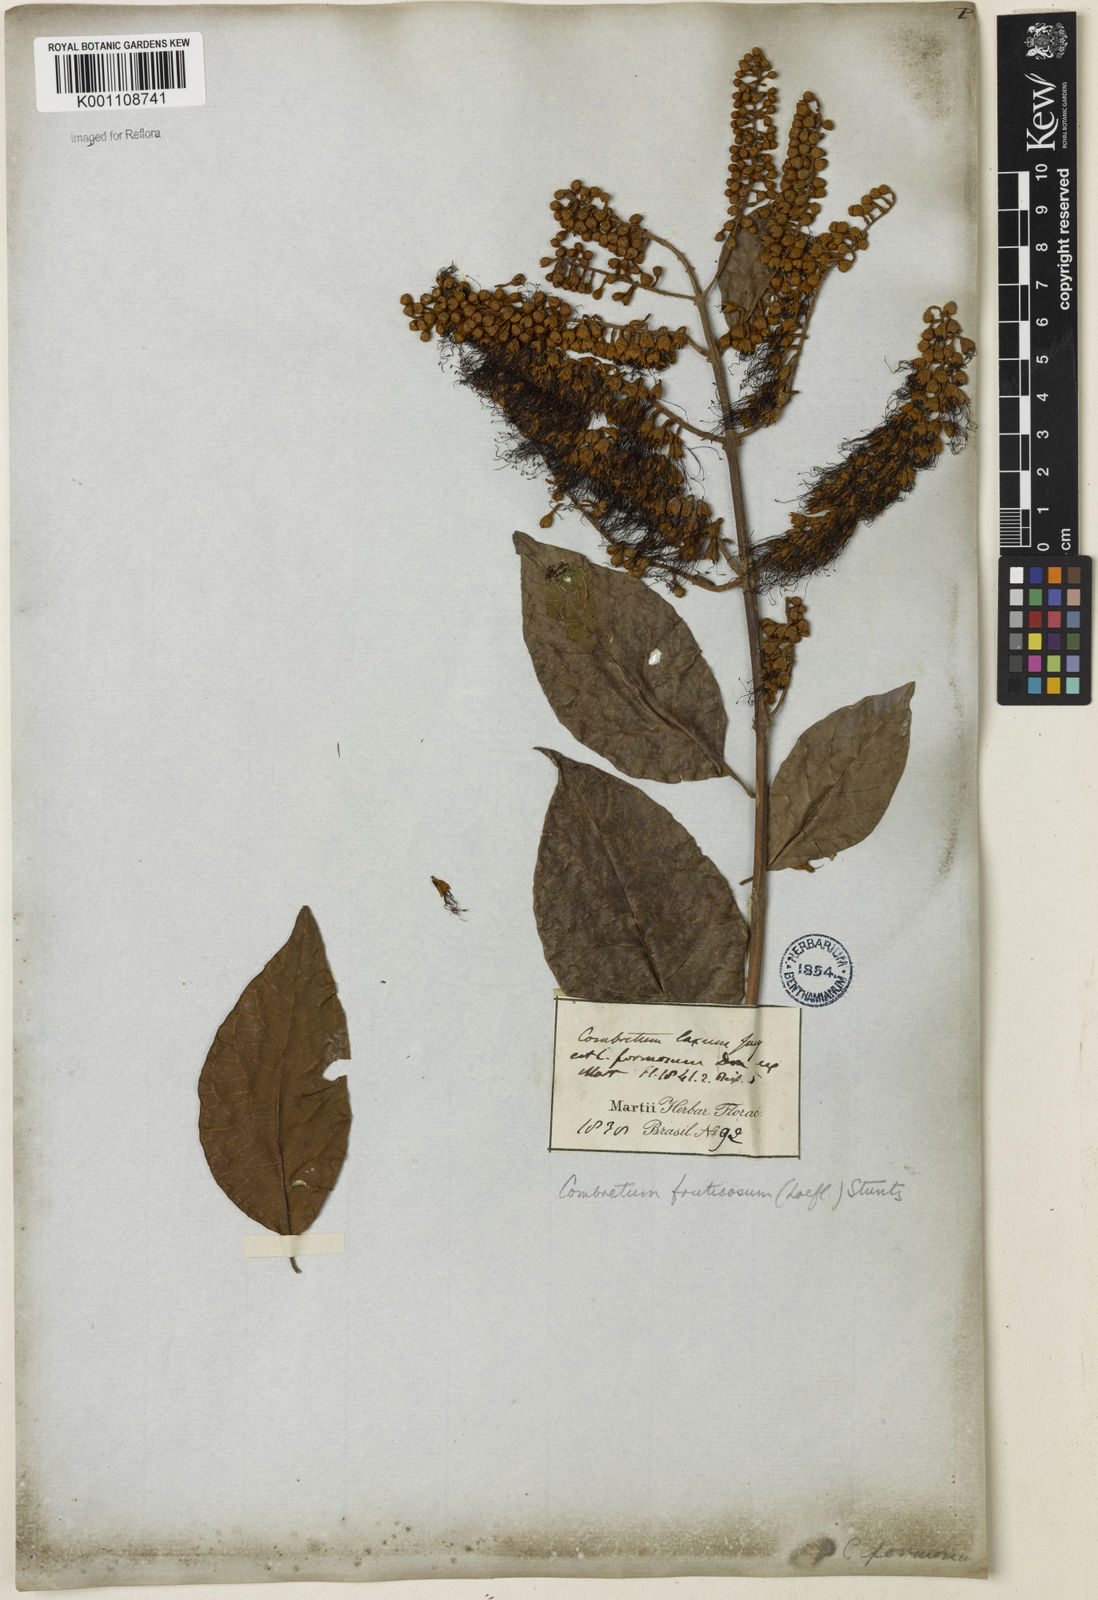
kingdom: Plantae
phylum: Tracheophyta
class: Magnoliopsida
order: Myrtales
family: Combretaceae
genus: Combretum
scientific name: Combretum fruticosum
